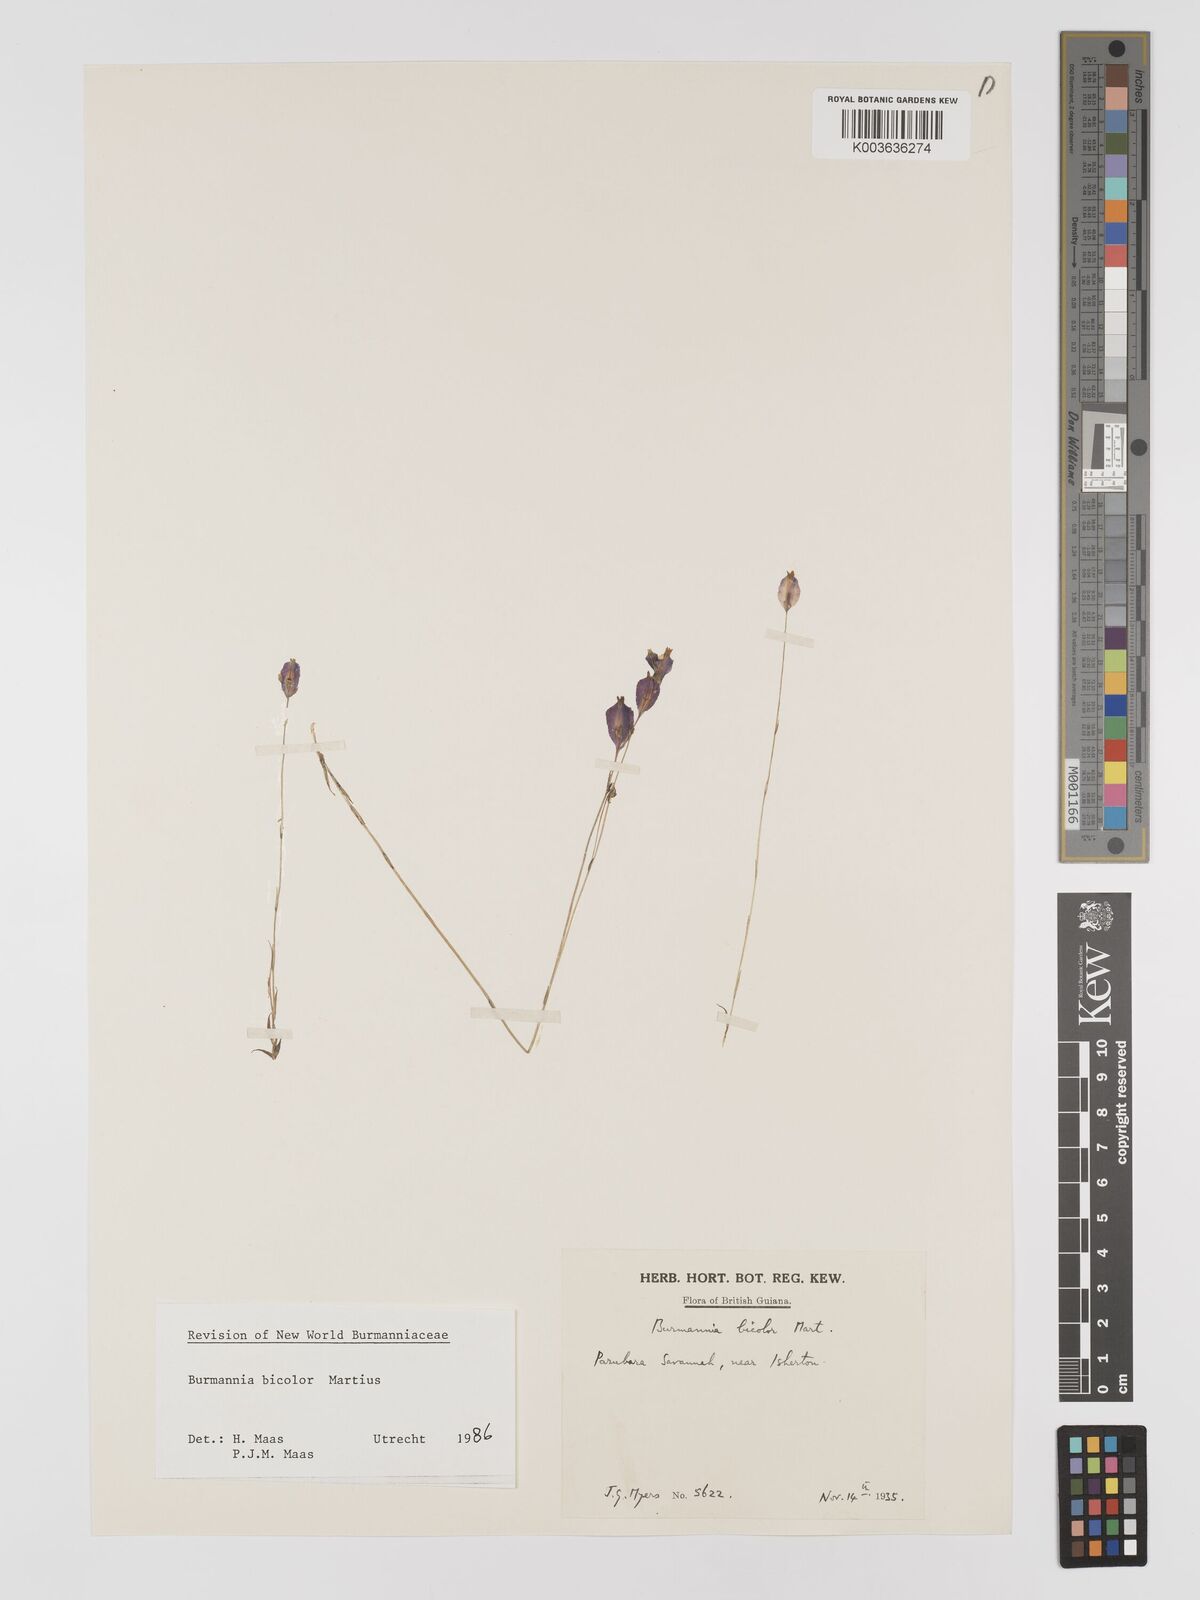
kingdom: Plantae
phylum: Tracheophyta
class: Liliopsida
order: Dioscoreales
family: Burmanniaceae
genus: Burmannia
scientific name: Burmannia bicolor
